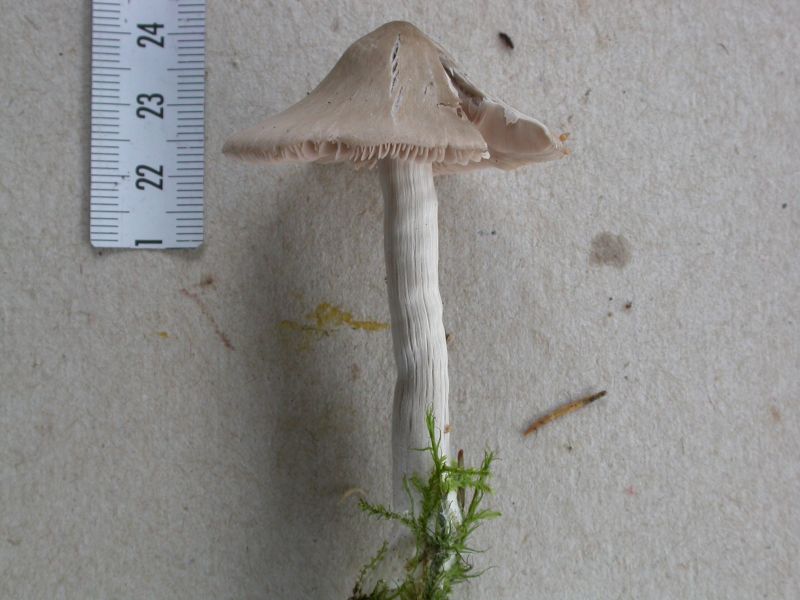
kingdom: Fungi
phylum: Basidiomycota
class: Agaricomycetes
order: Agaricales
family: Entolomataceae
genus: Entocybe
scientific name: Entocybe turbida
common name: plantage-rødblad
